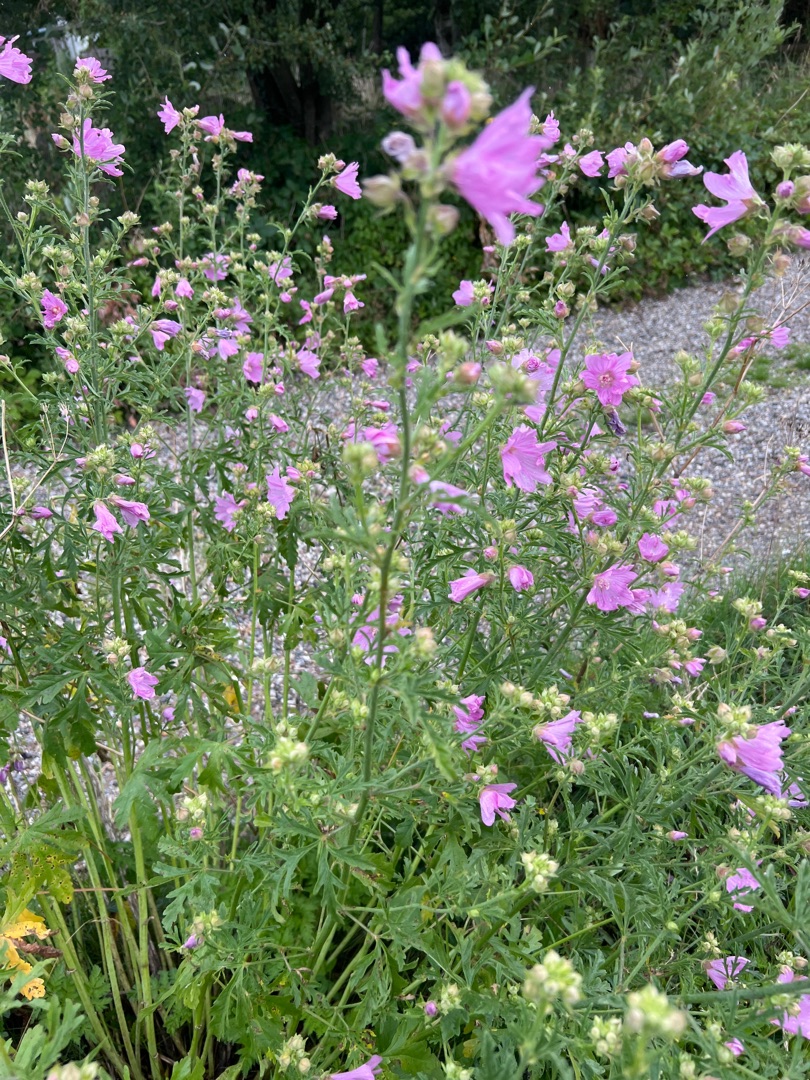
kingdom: Plantae
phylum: Tracheophyta
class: Magnoliopsida
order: Malvales
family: Malvaceae
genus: Malva
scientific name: Malva alcea
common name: Rosen-katost
